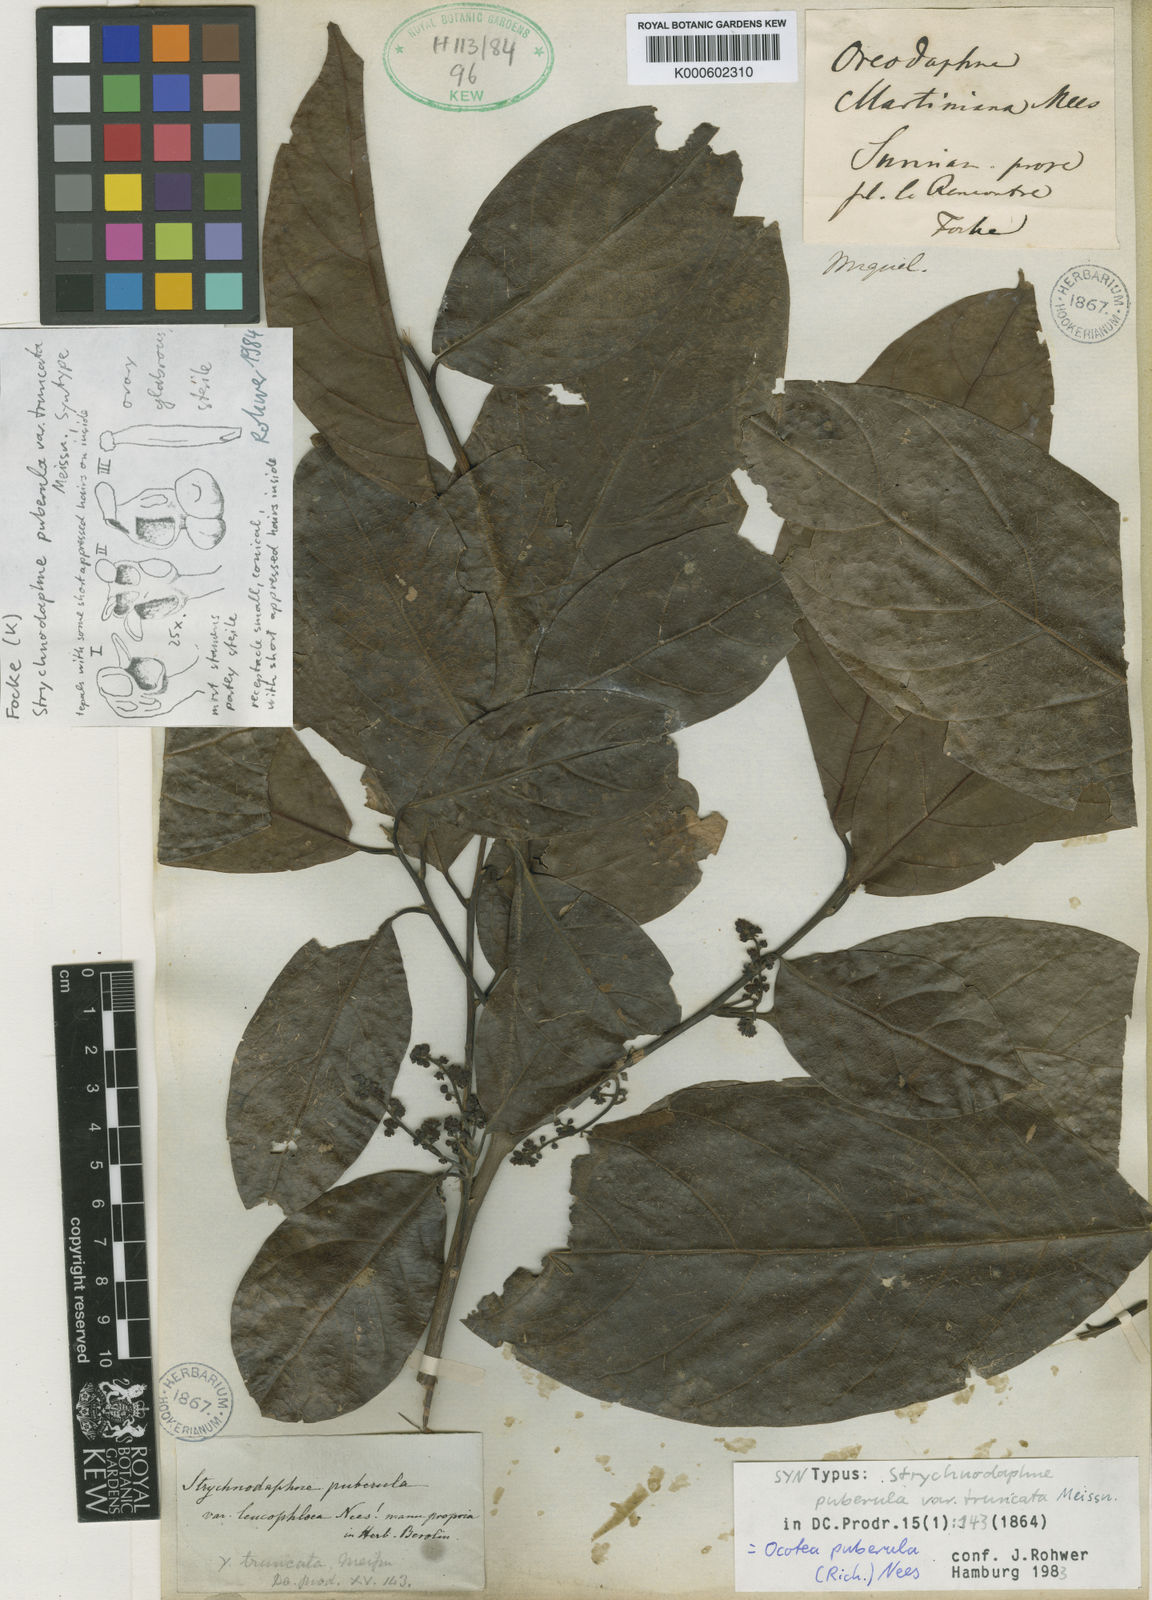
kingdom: Plantae
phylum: Tracheophyta
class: Magnoliopsida
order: Laurales
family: Lauraceae
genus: Ocotea
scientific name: Ocotea puberula
